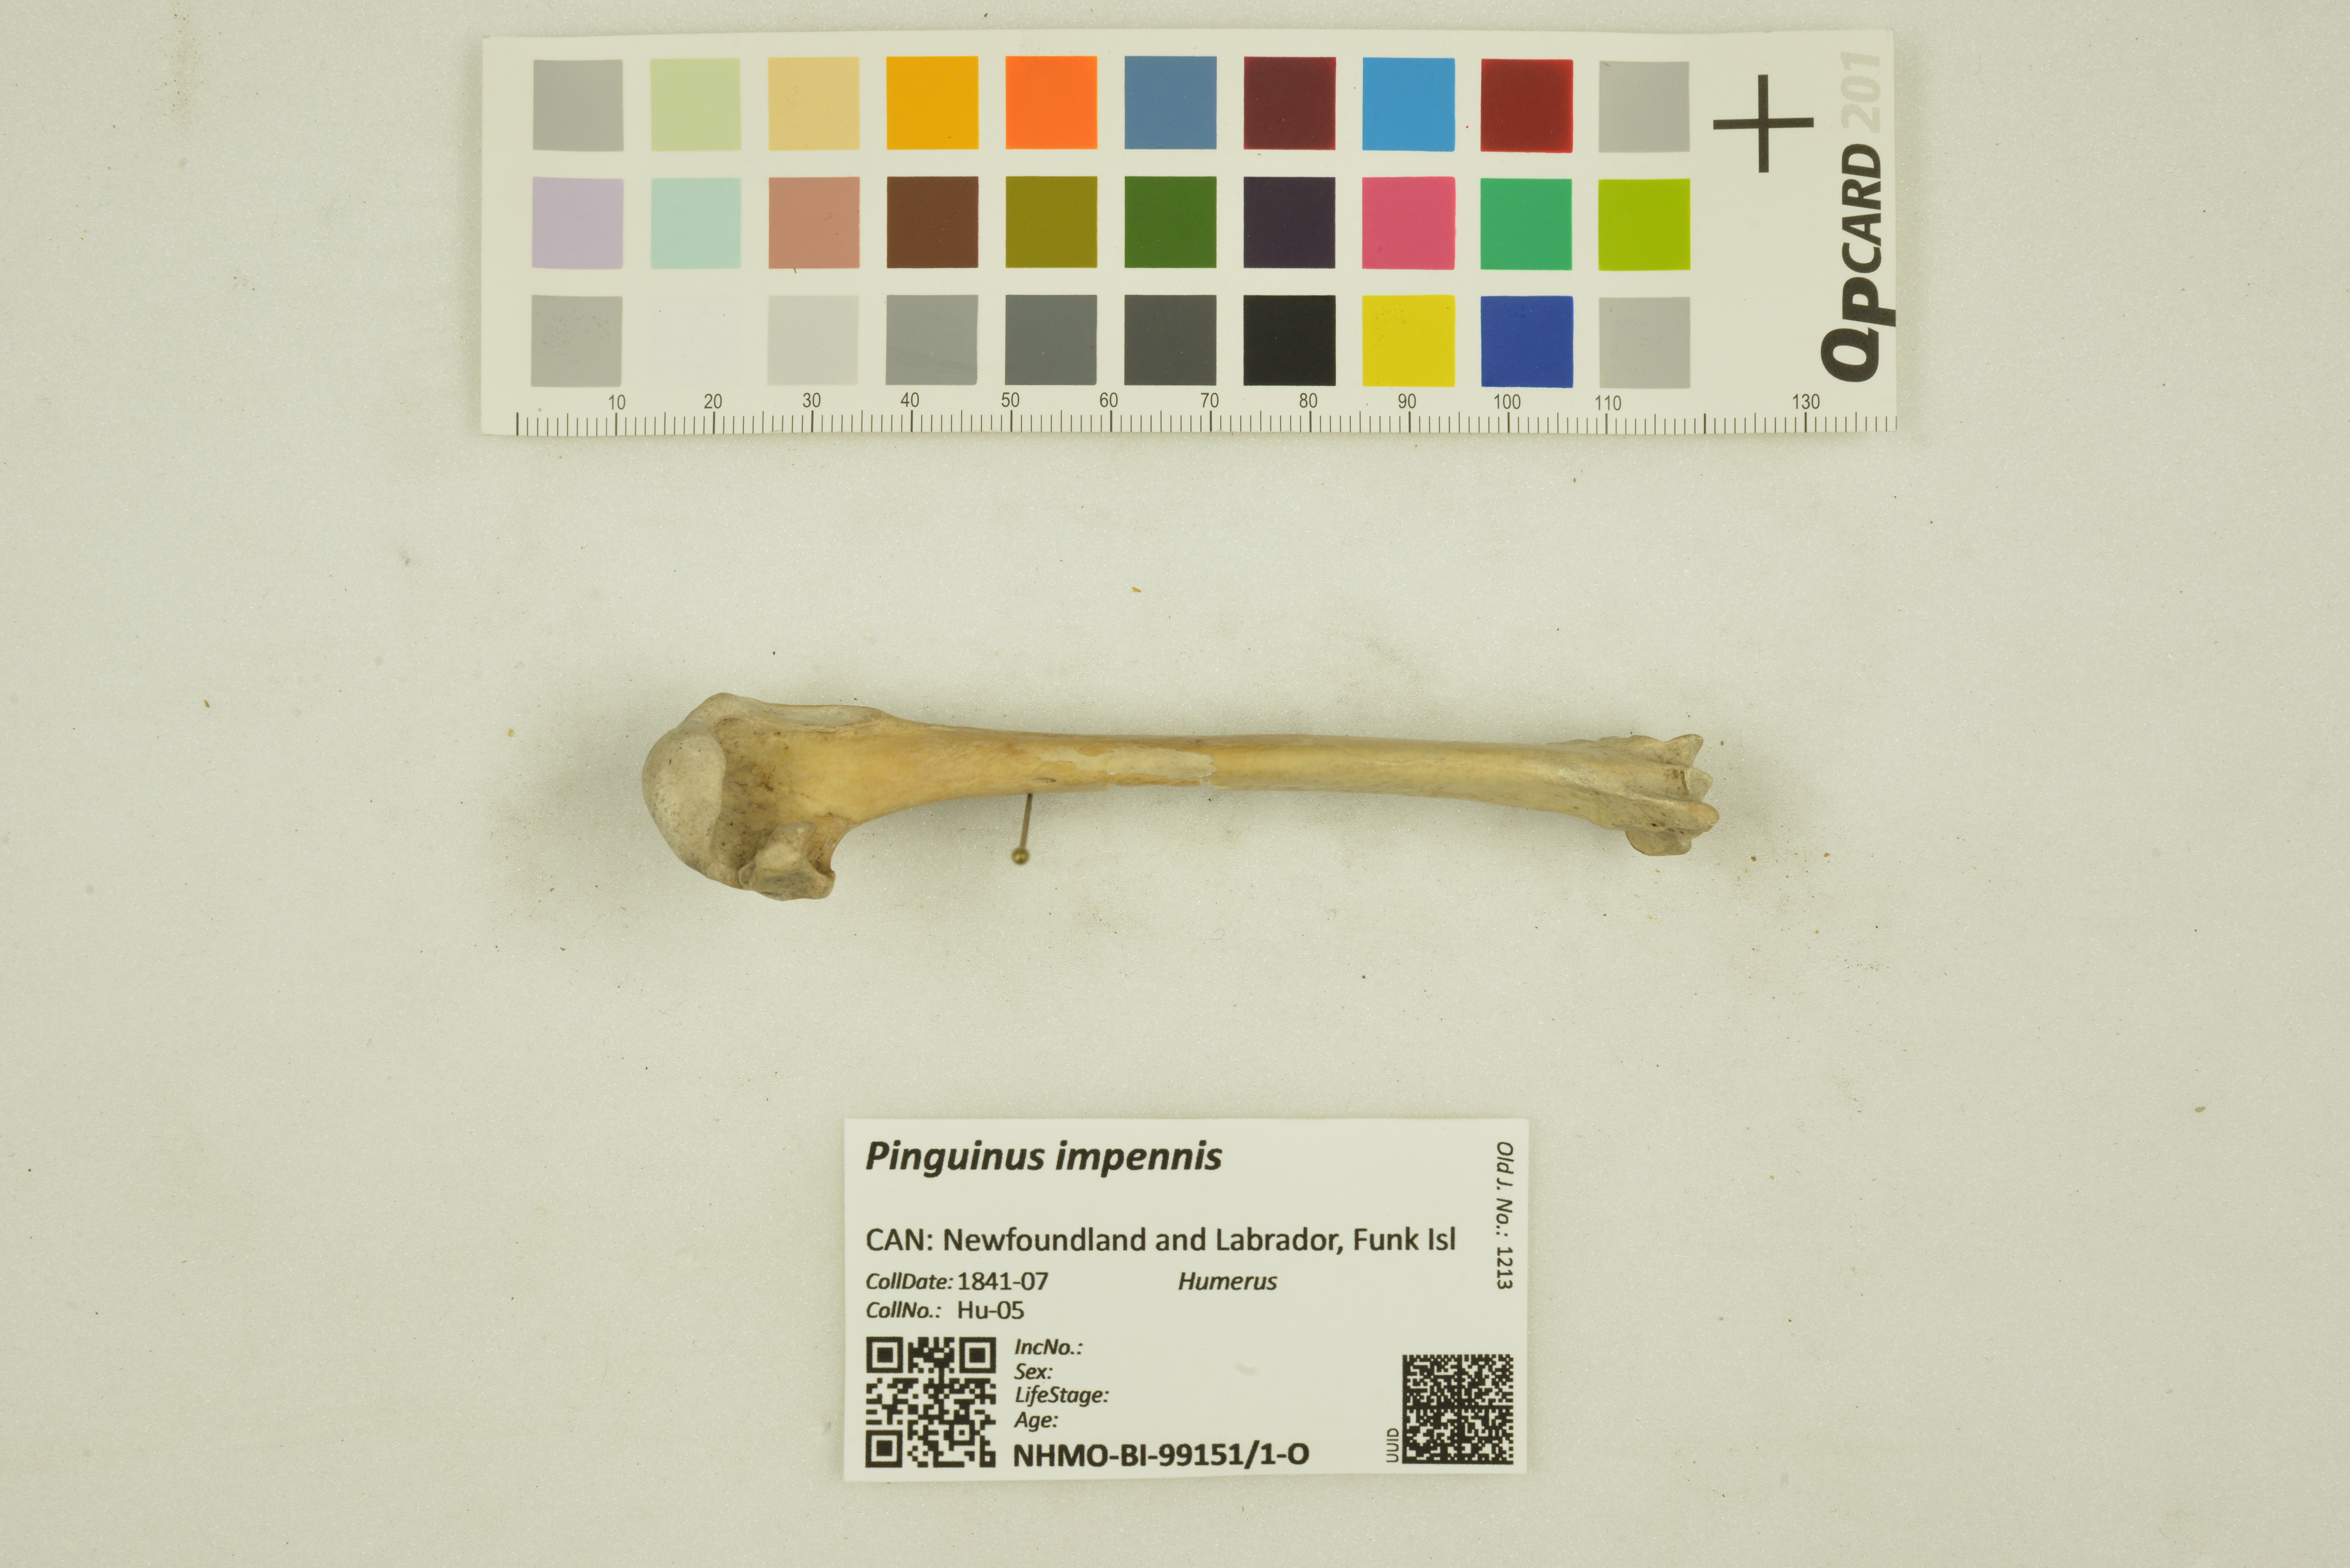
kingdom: Animalia
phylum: Chordata
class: Aves
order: Charadriiformes
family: Alcidae
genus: Pinguinus
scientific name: Pinguinus impennis
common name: Great auk
